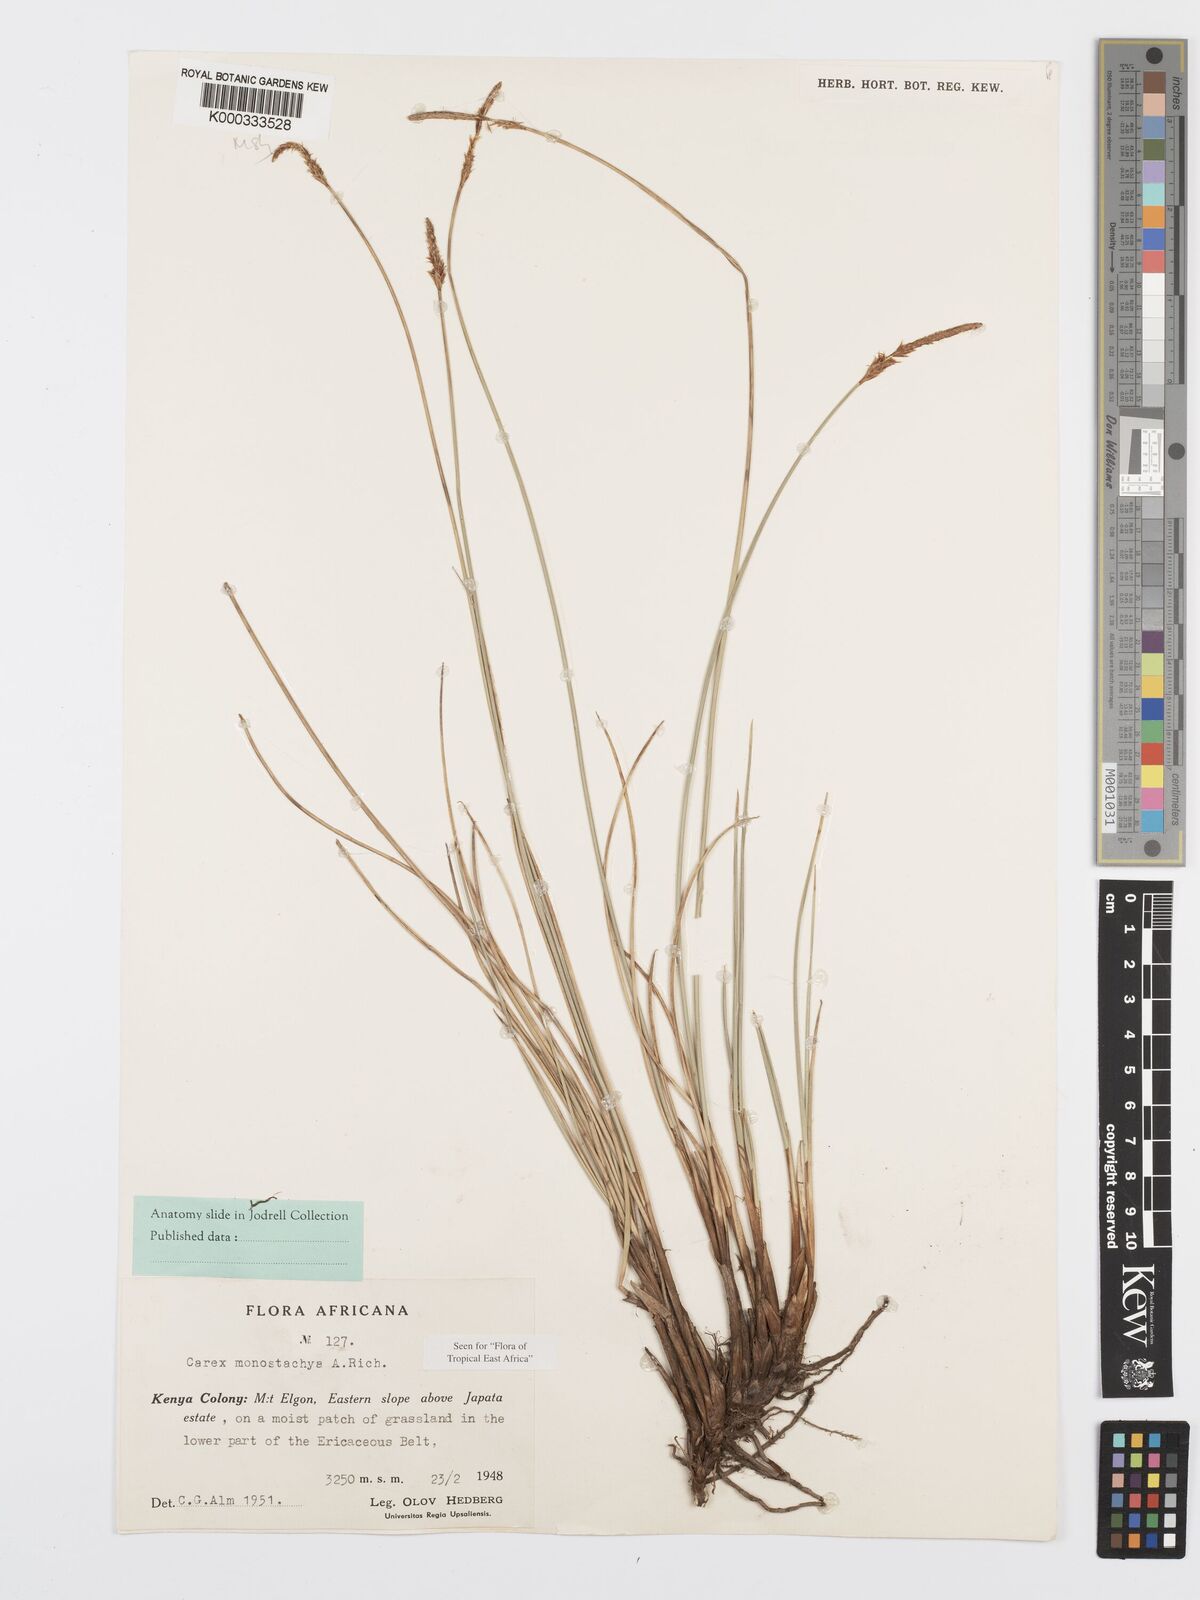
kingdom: Plantae
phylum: Tracheophyta
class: Liliopsida
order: Poales
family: Cyperaceae
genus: Carex
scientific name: Carex monostachya
